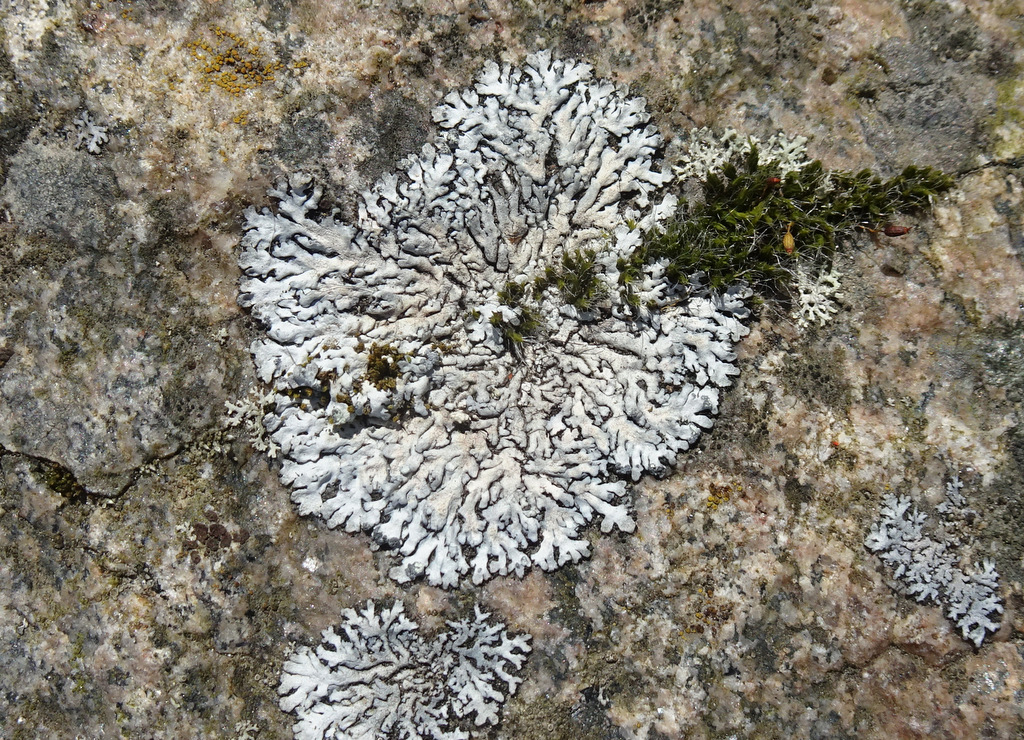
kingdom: Fungi
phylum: Ascomycota
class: Lecanoromycetes
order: Caliciales
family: Physciaceae
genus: Physcia
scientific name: Physcia caesia
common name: blågrå rosetlav
